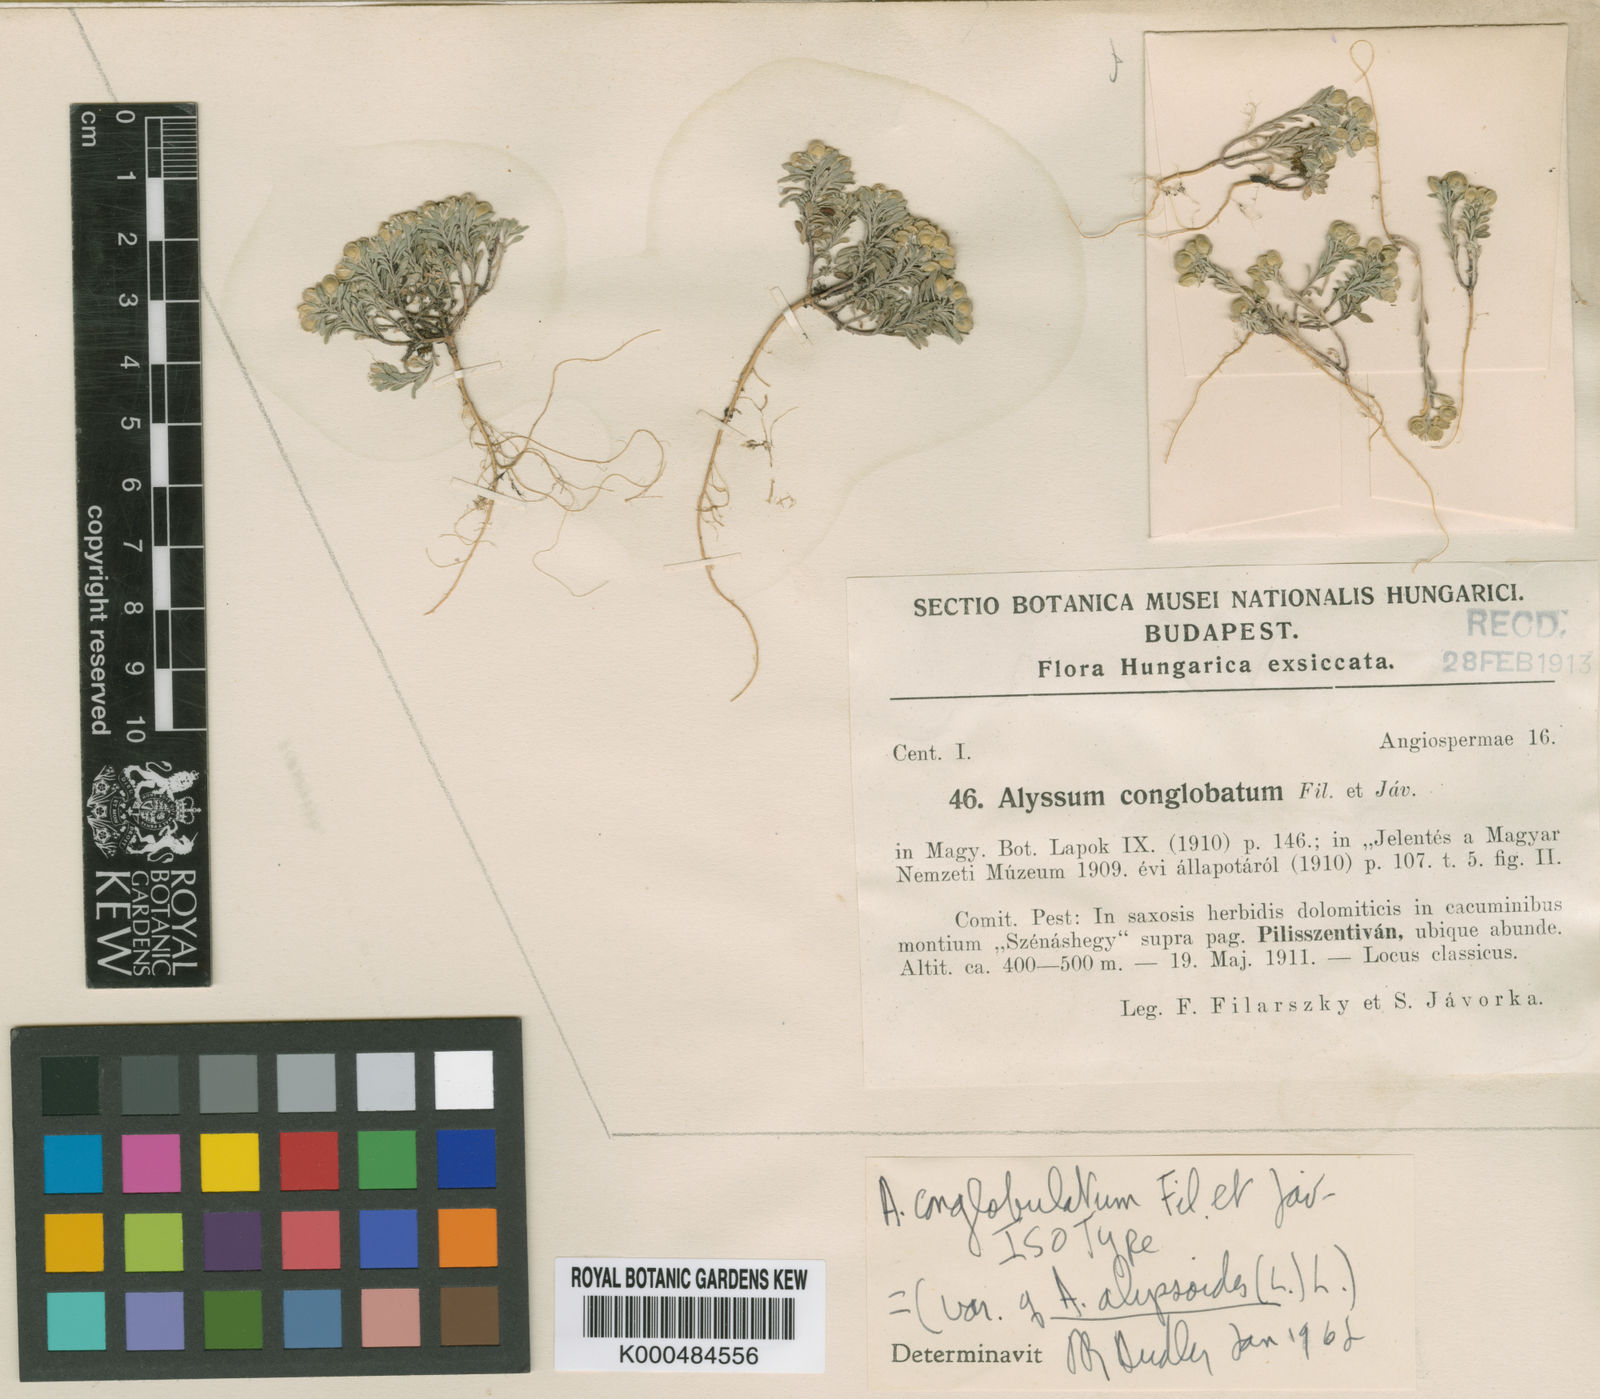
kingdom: Plantae
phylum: Tracheophyta
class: Magnoliopsida
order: Brassicales
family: Brassicaceae
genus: Alyssum
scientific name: Alyssum alyssoides
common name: Small alison
